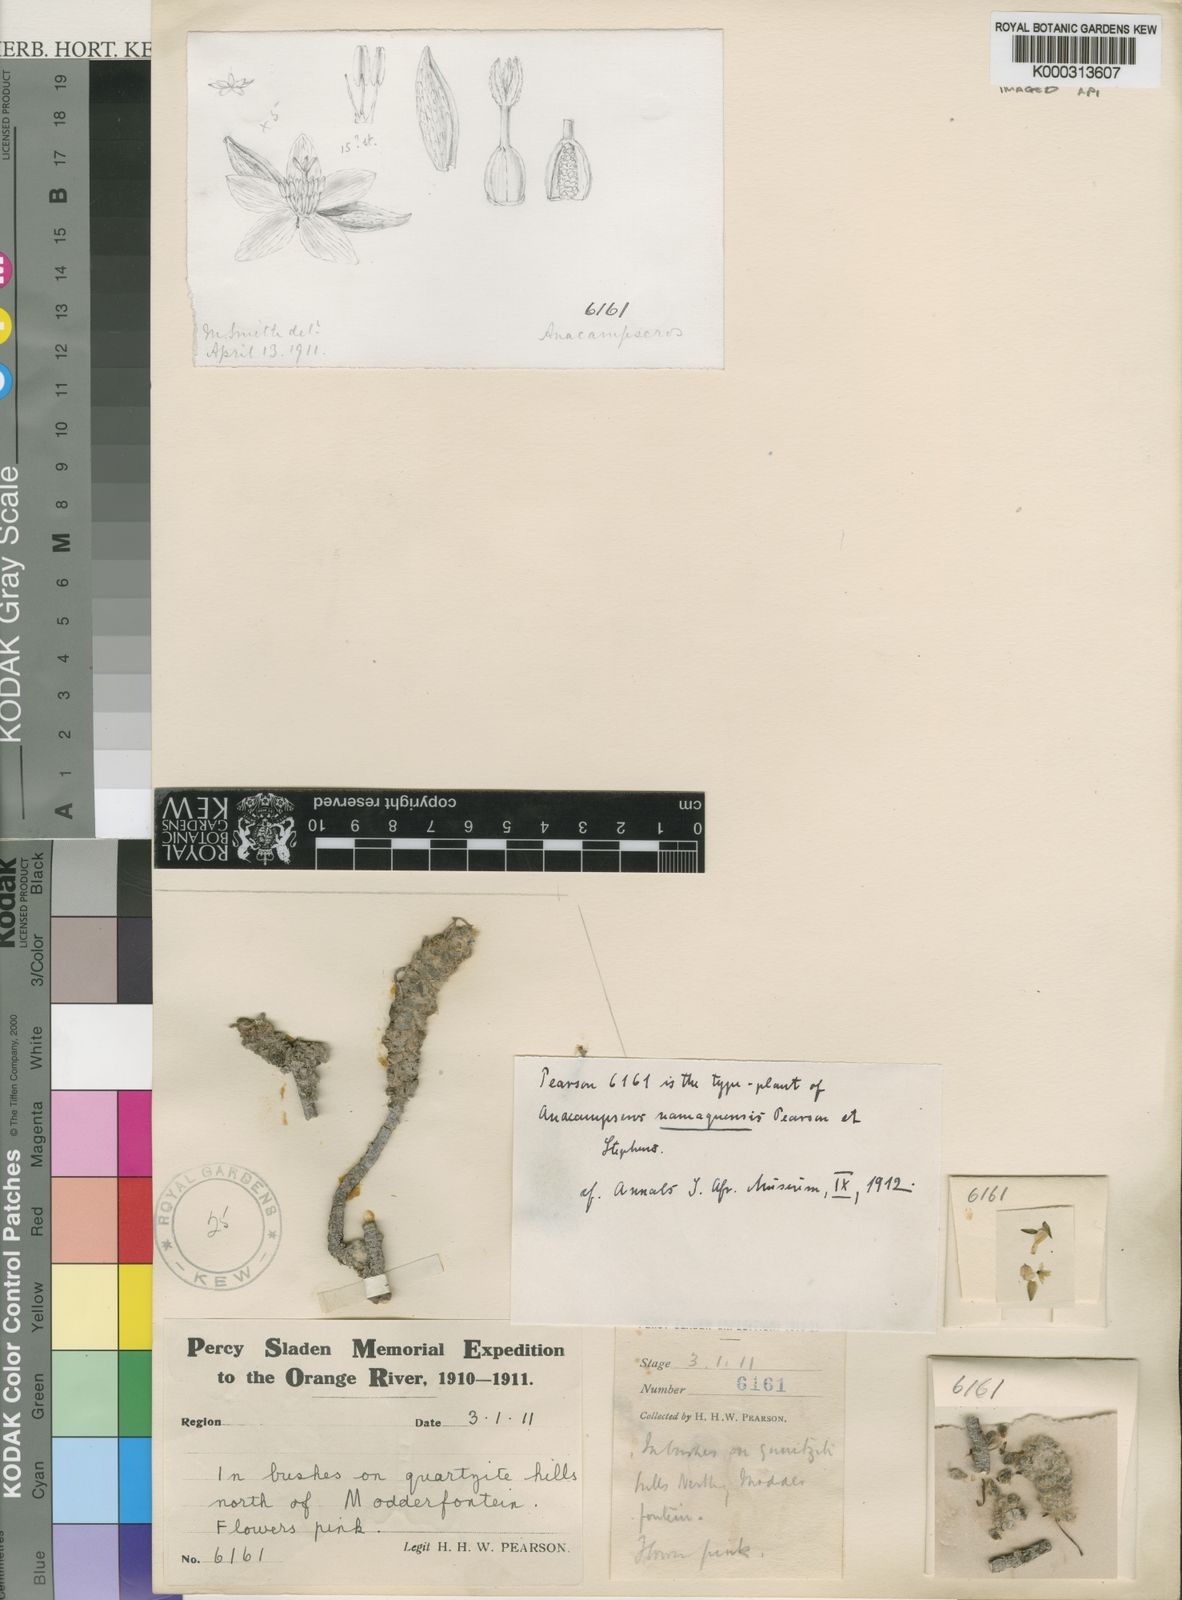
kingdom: Plantae
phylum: Tracheophyta
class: Magnoliopsida
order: Caryophyllales
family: Anacampserotaceae
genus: Anacampseros
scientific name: Anacampseros filamentosa
